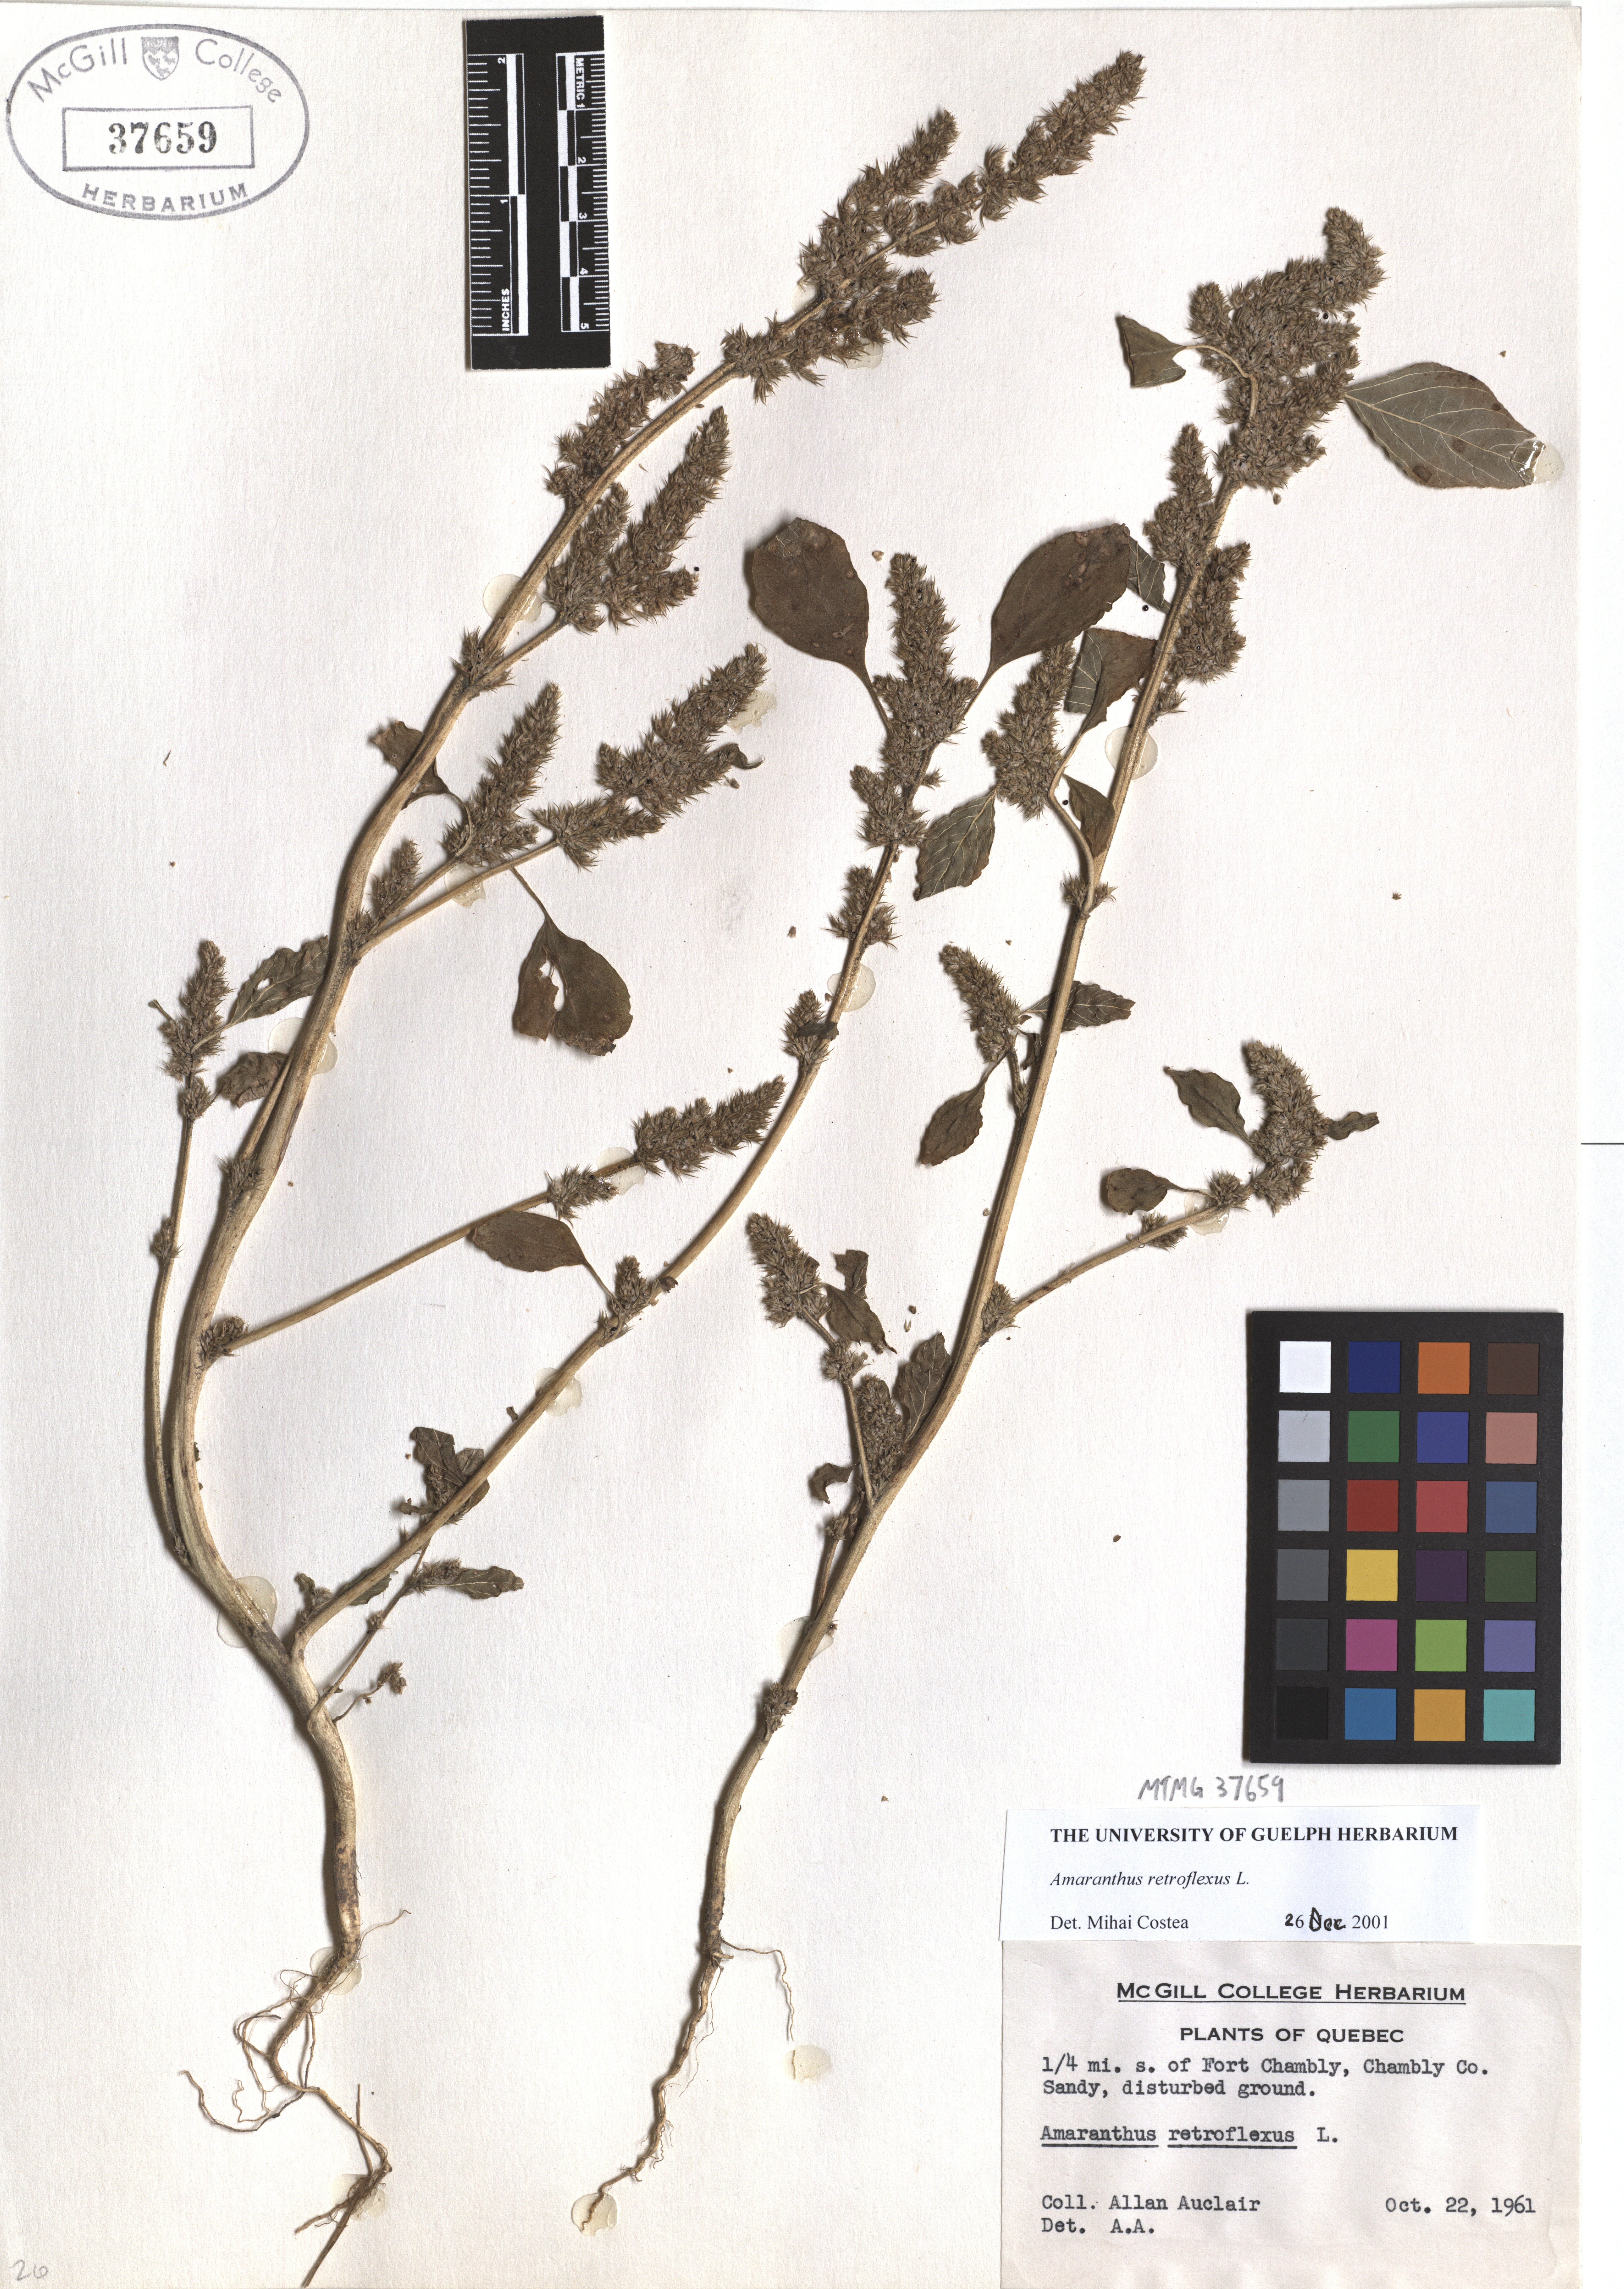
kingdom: Plantae
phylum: Tracheophyta
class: Magnoliopsida
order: Caryophyllales
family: Amaranthaceae
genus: Amaranthus
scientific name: Amaranthus retroflexus
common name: Redroot amaranth
